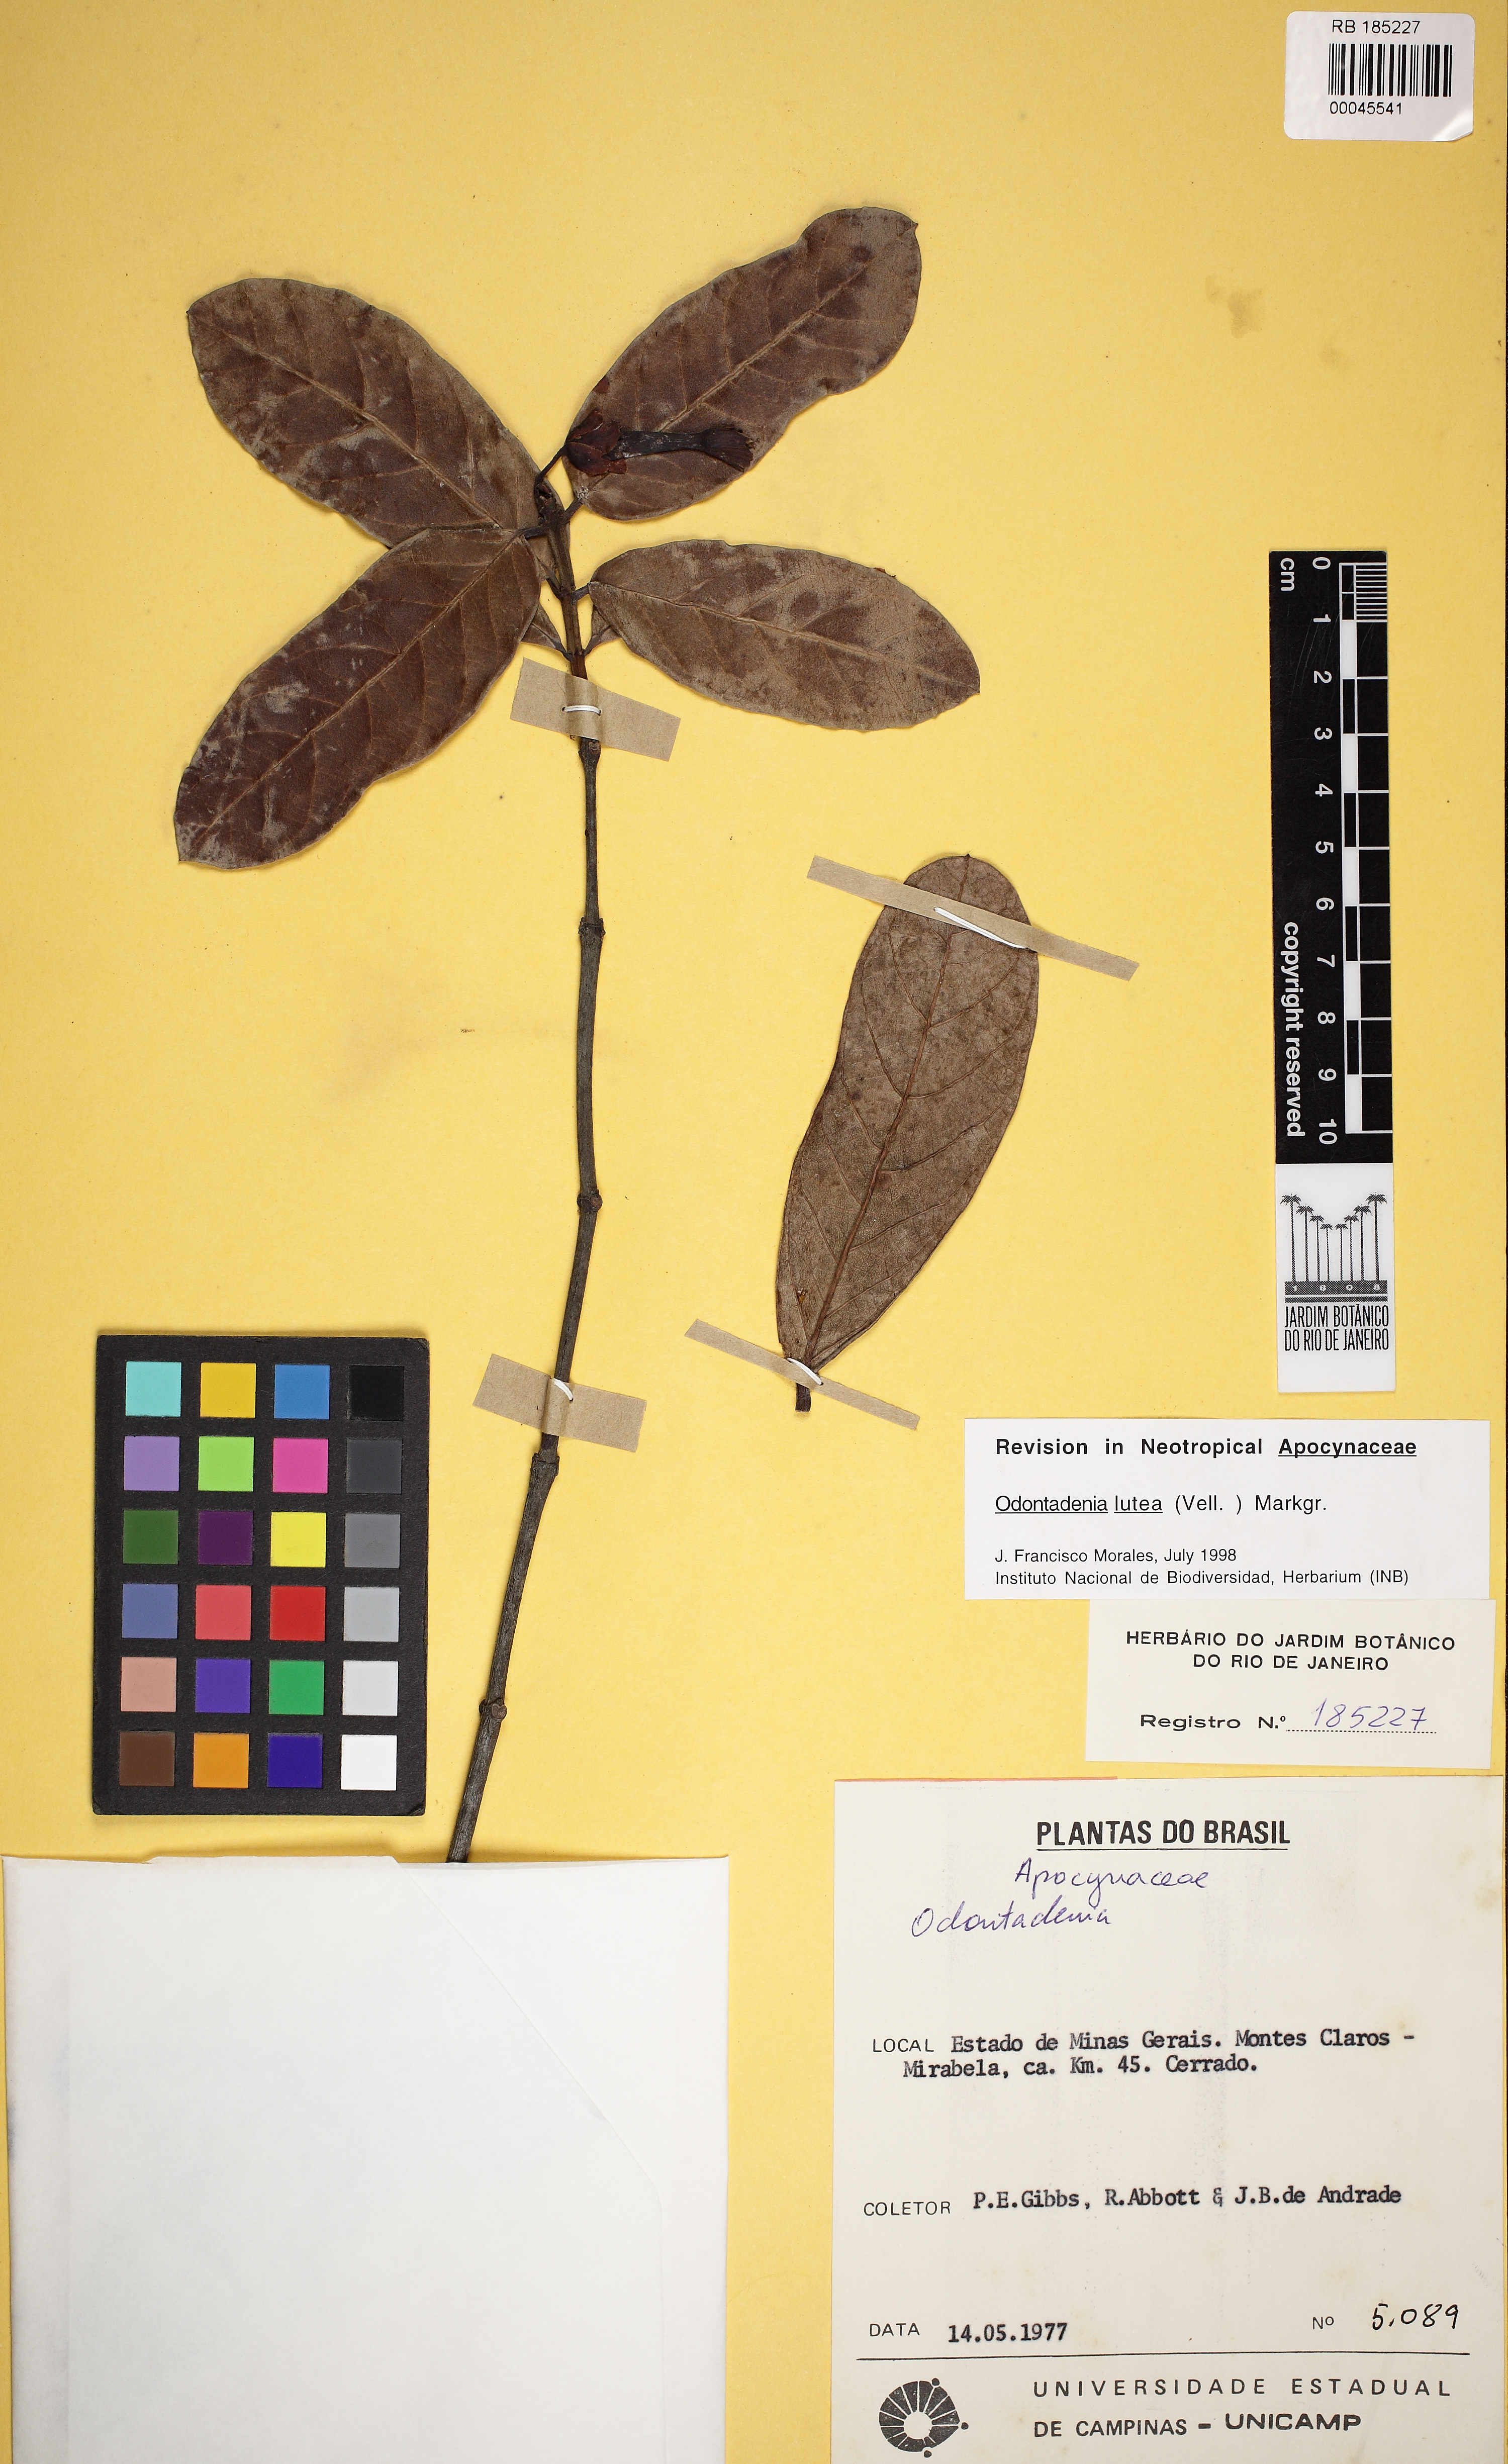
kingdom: Plantae
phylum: Tracheophyta
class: Magnoliopsida
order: Gentianales
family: Apocynaceae
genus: Odontadenia
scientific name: Odontadenia lutea
